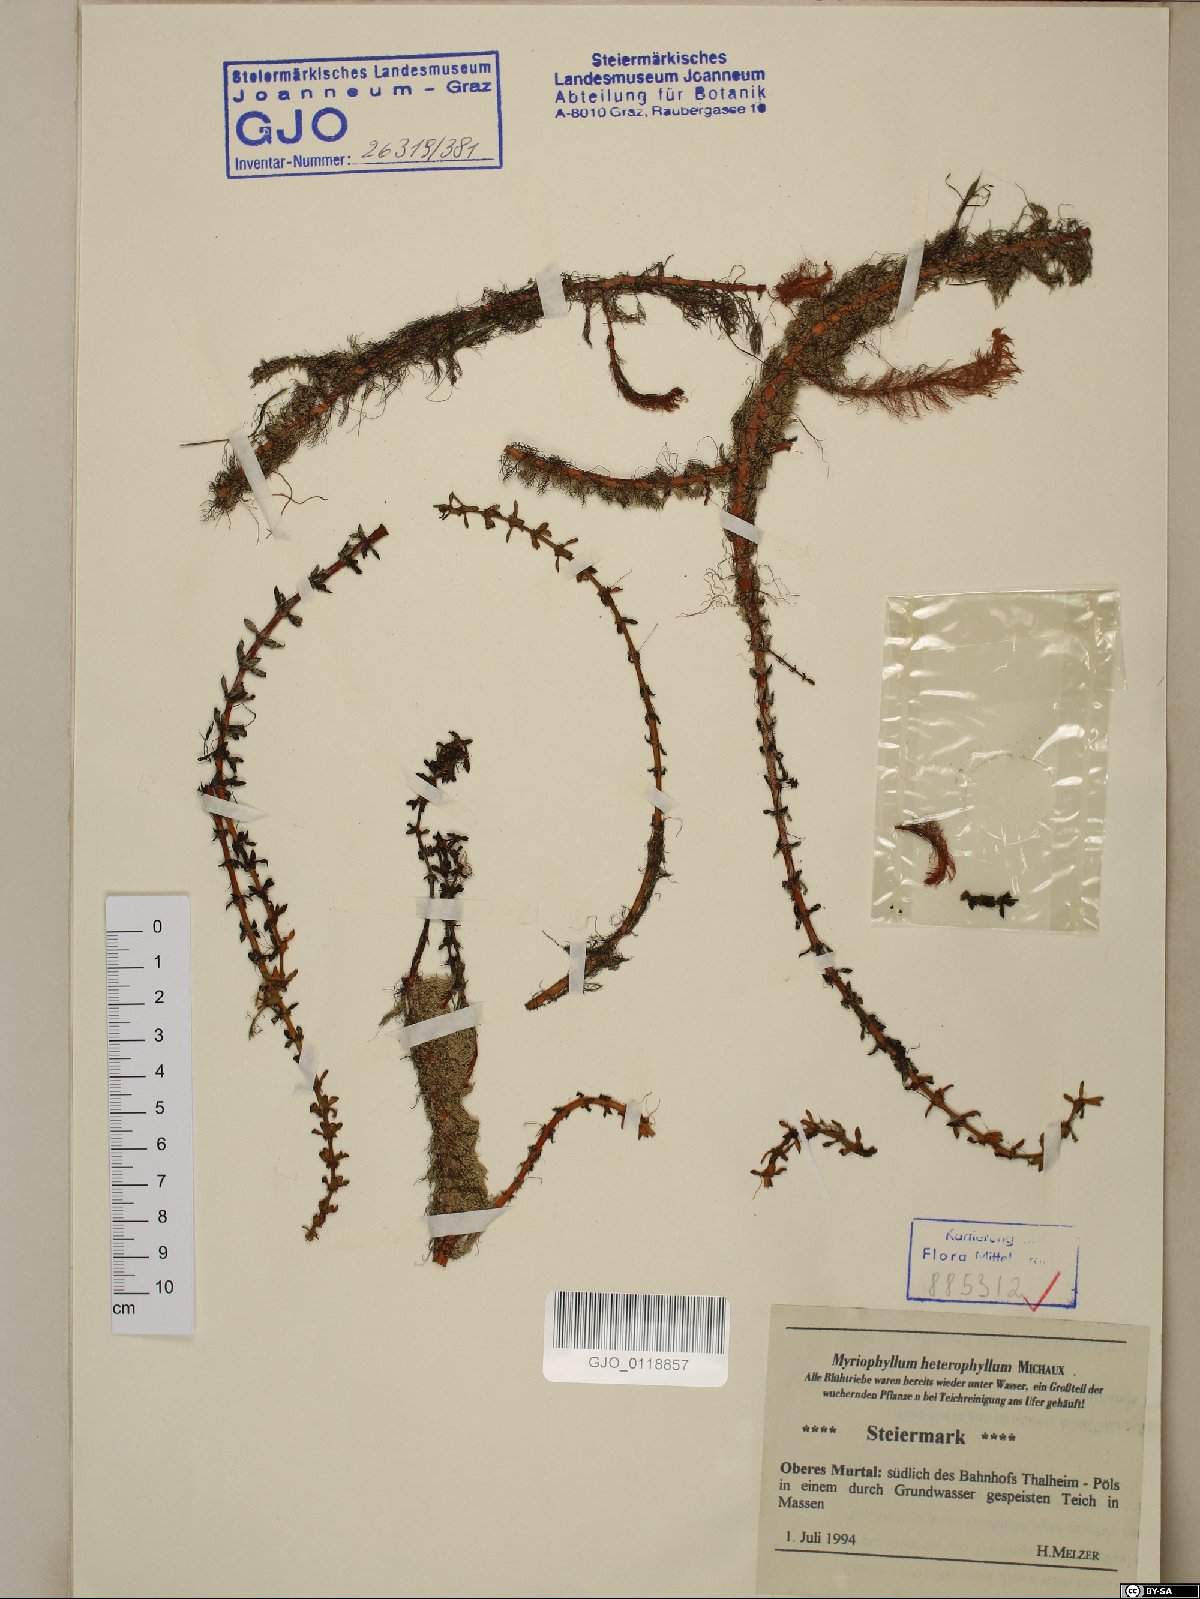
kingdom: Plantae
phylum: Tracheophyta
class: Magnoliopsida
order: Saxifragales
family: Haloragaceae
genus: Myriophyllum
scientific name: Myriophyllum heterophyllum
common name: Variable watermilfoil
